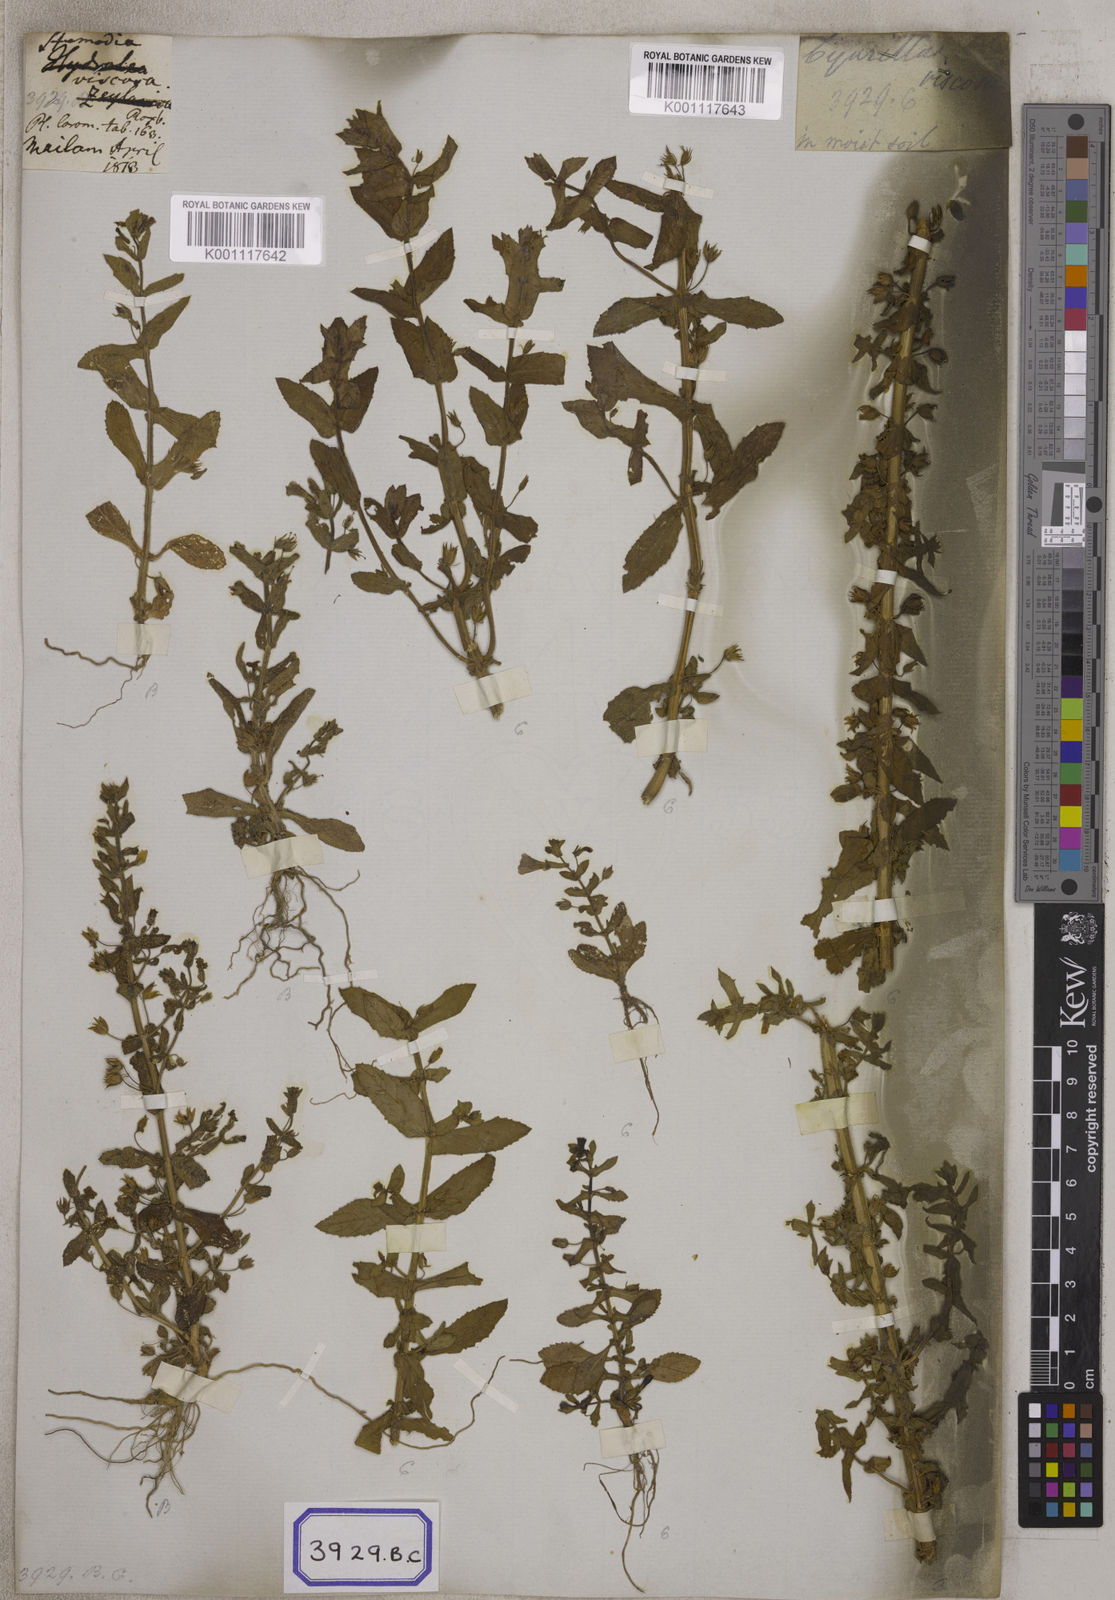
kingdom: Plantae
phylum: Tracheophyta
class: Magnoliopsida
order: Lamiales
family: Plantaginaceae
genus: Stemodia
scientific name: Stemodia viscosa
